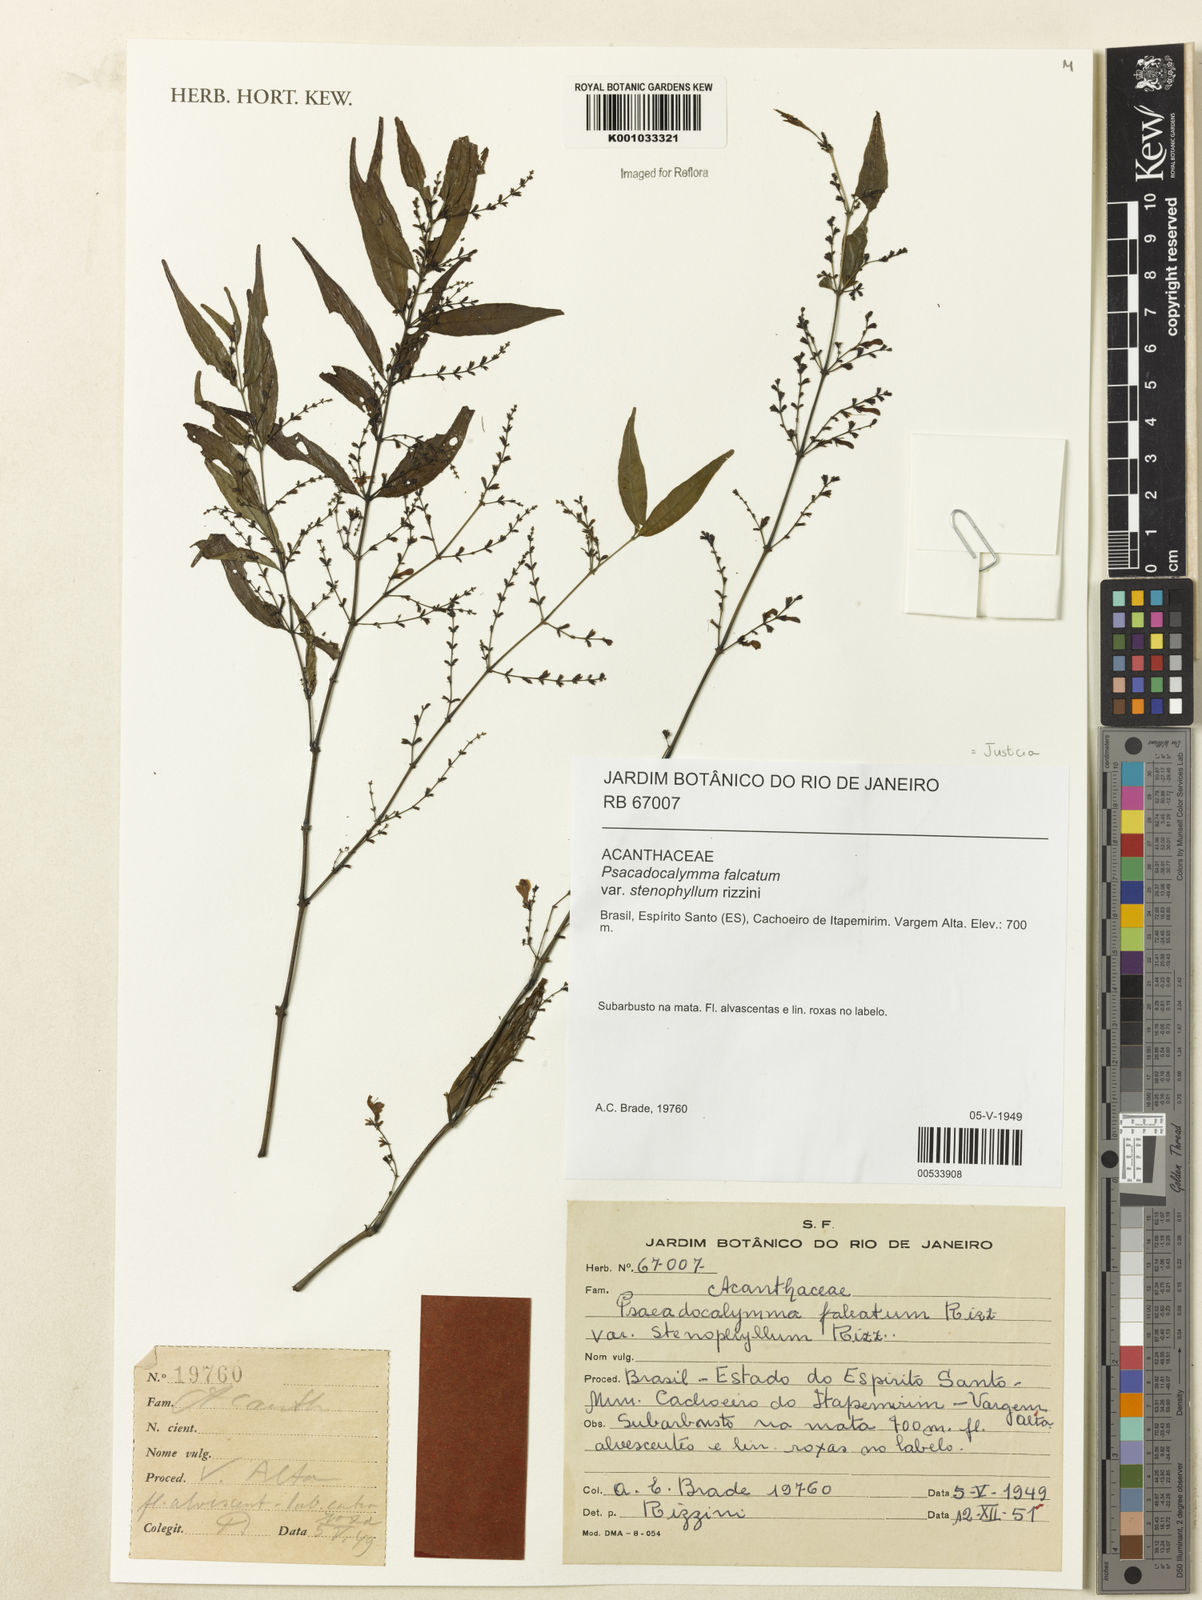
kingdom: Plantae
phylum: Tracheophyta
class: Magnoliopsida
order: Lamiales
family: Acanthaceae
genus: Dicliptera
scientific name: Dicliptera falcata
